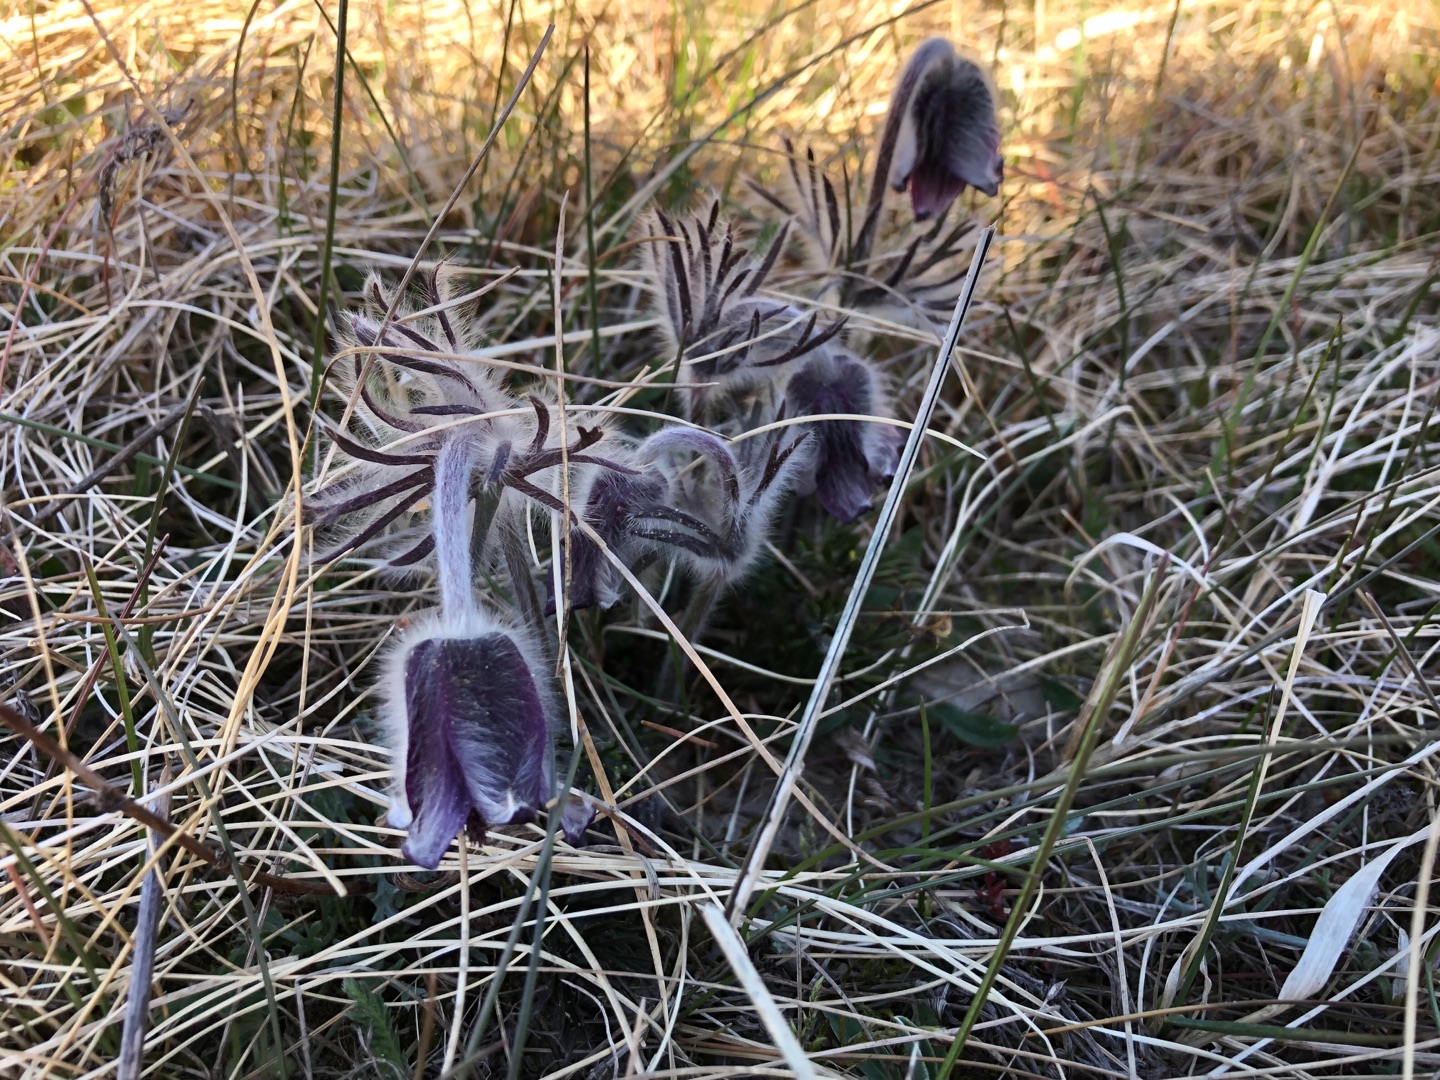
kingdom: Plantae
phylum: Tracheophyta
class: Magnoliopsida
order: Ranunculales
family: Ranunculaceae
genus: Pulsatilla
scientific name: Pulsatilla pratensis
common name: Nikkende kobjælde
